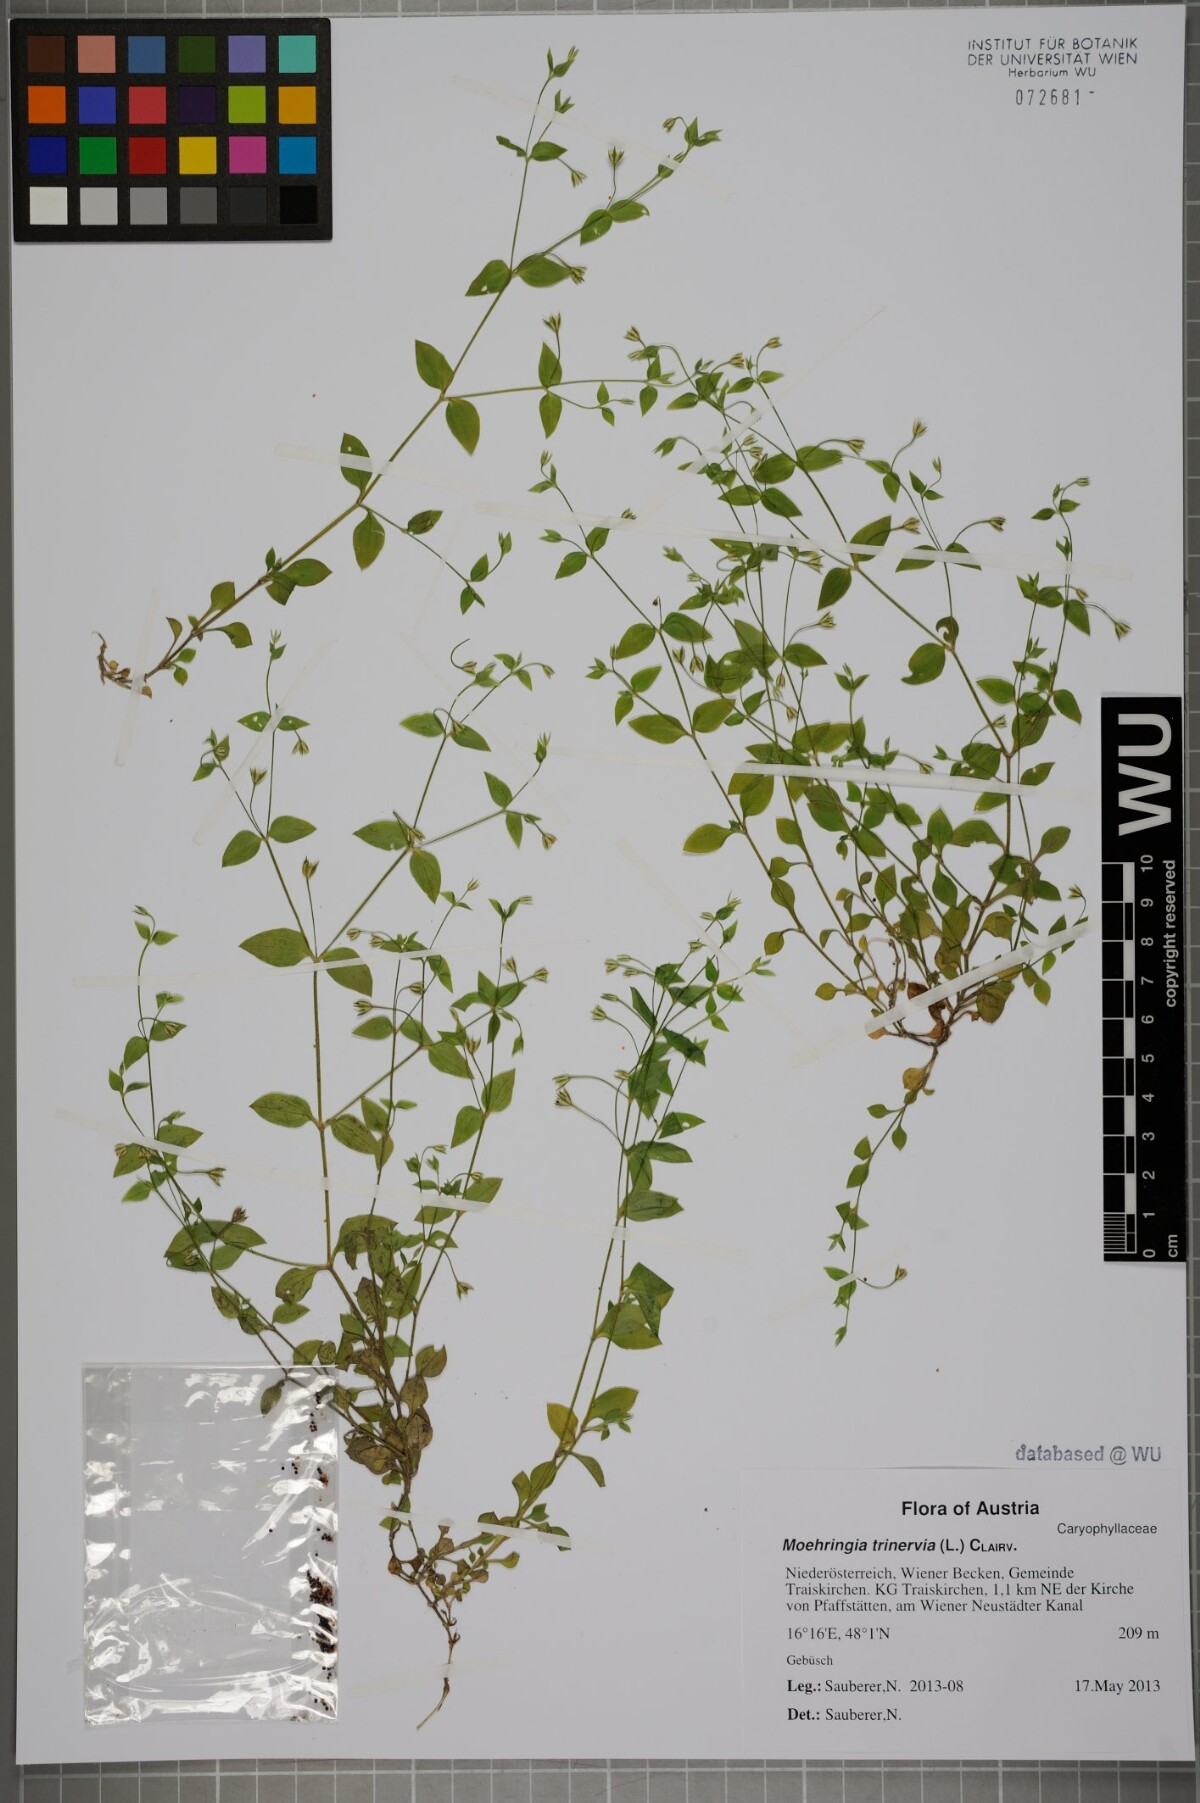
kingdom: Plantae
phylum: Tracheophyta
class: Magnoliopsida
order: Caryophyllales
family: Caryophyllaceae
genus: Moehringia
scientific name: Moehringia trinervia
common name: Three-nerved sandwort
